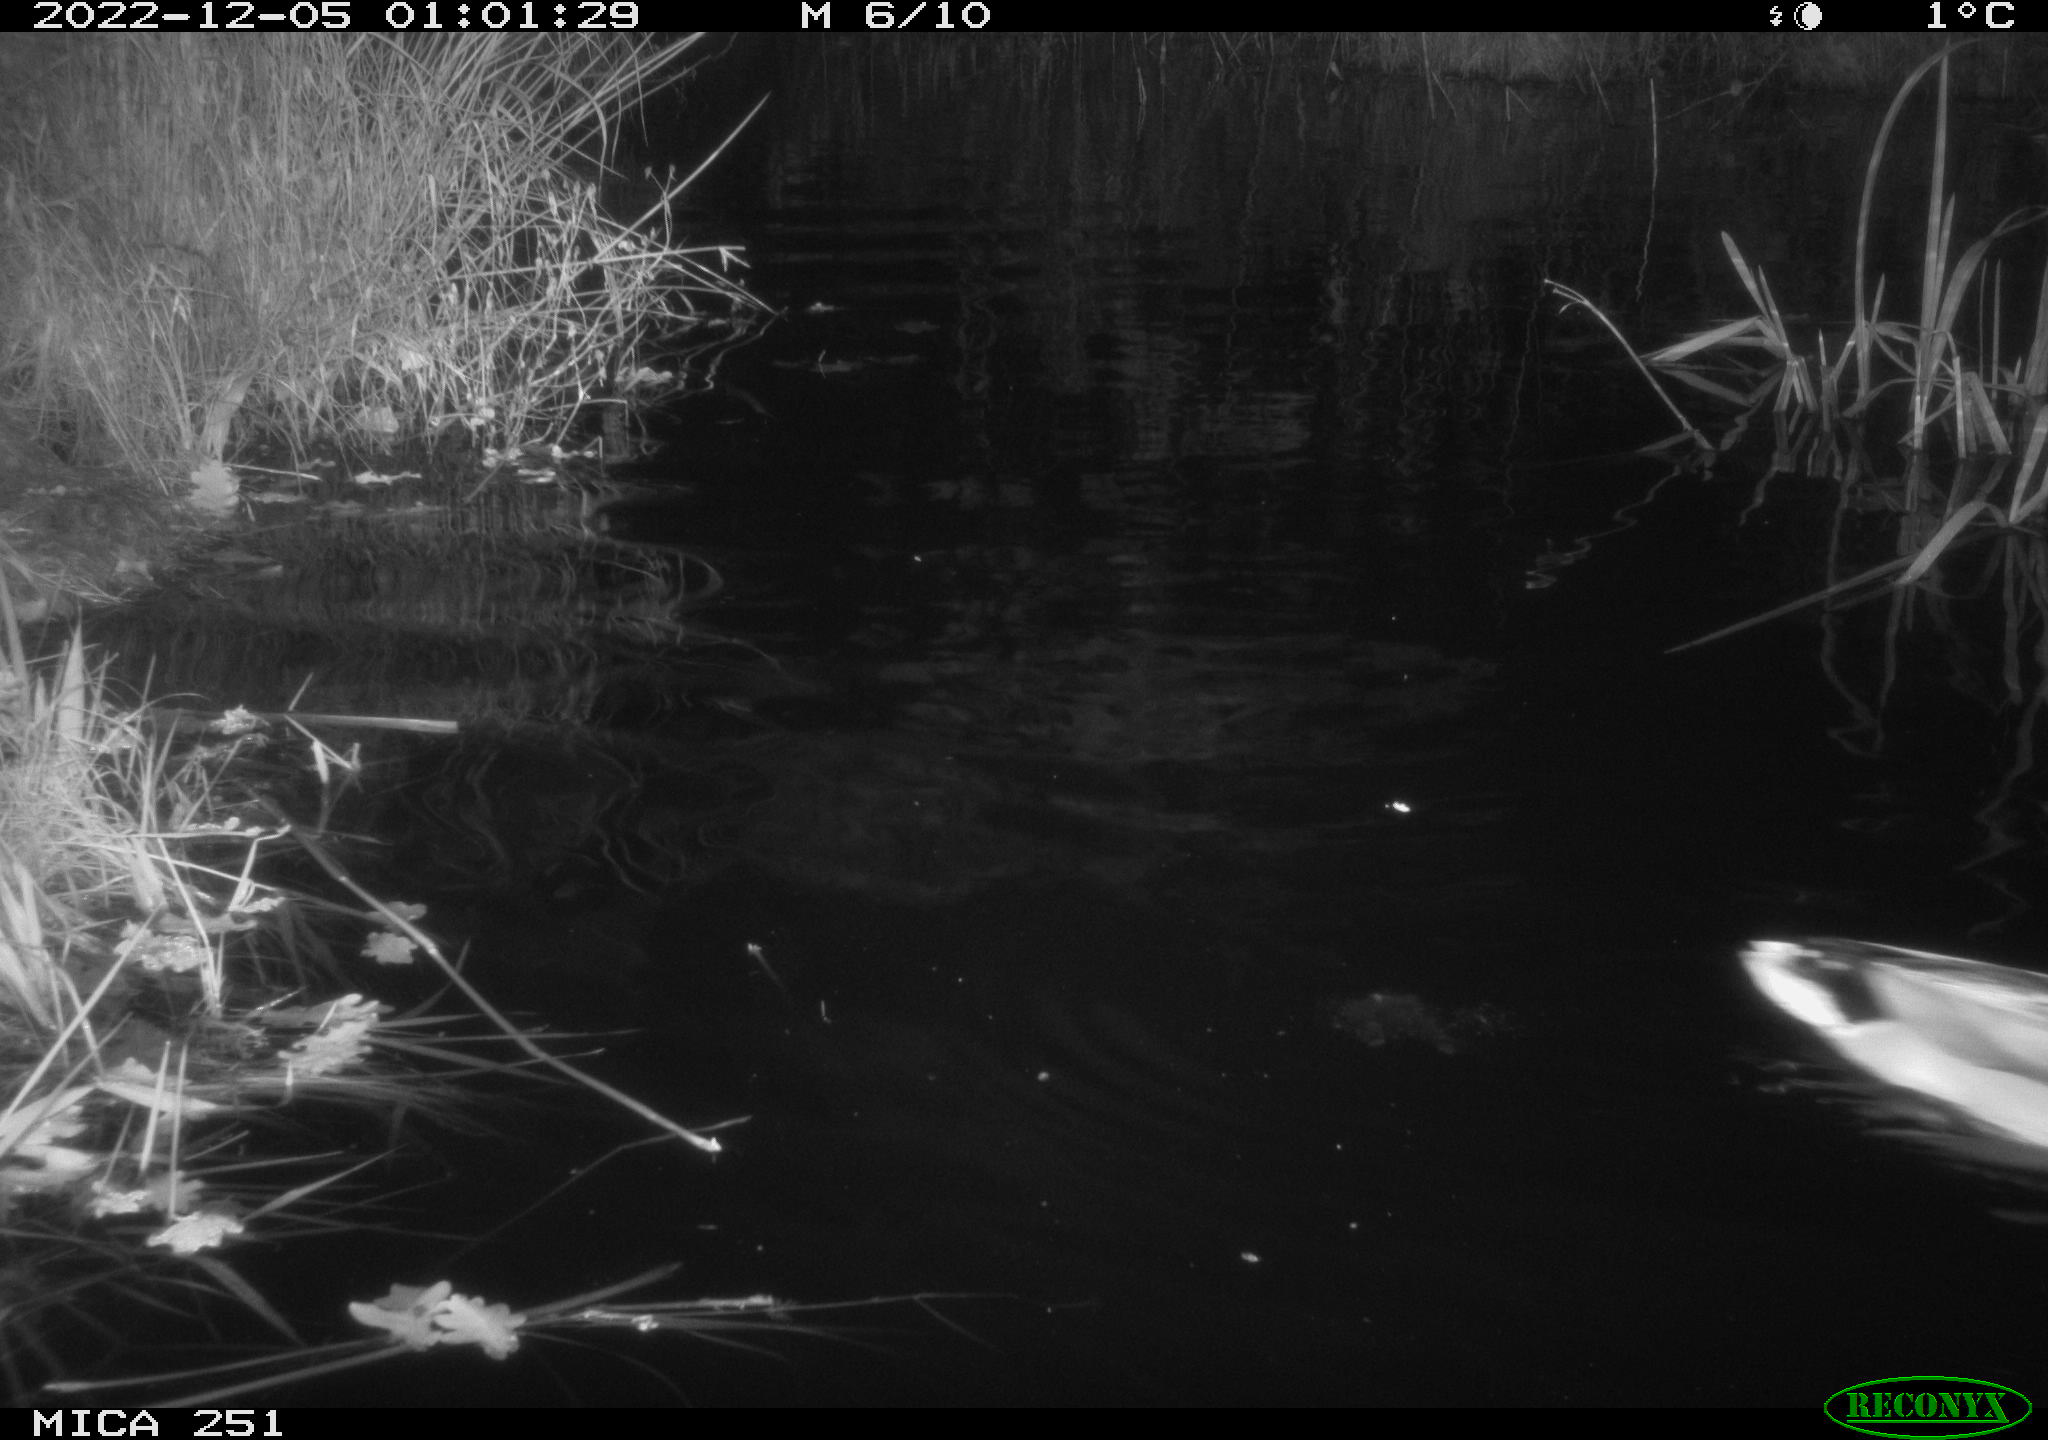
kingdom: Animalia
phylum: Chordata
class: Aves
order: Anseriformes
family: Anatidae
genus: Anas
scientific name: Anas
